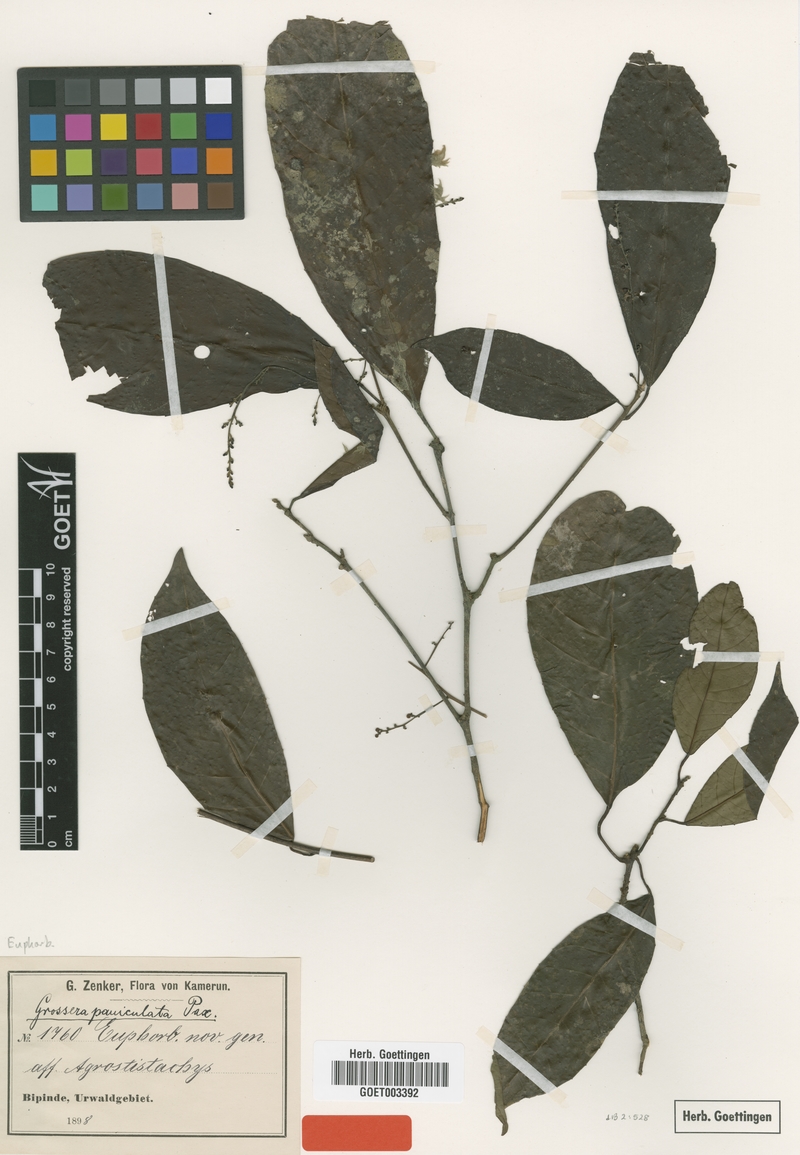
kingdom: Plantae
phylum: Tracheophyta
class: Magnoliopsida
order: Malpighiales
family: Euphorbiaceae
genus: Grossera
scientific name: Grossera paniculata
